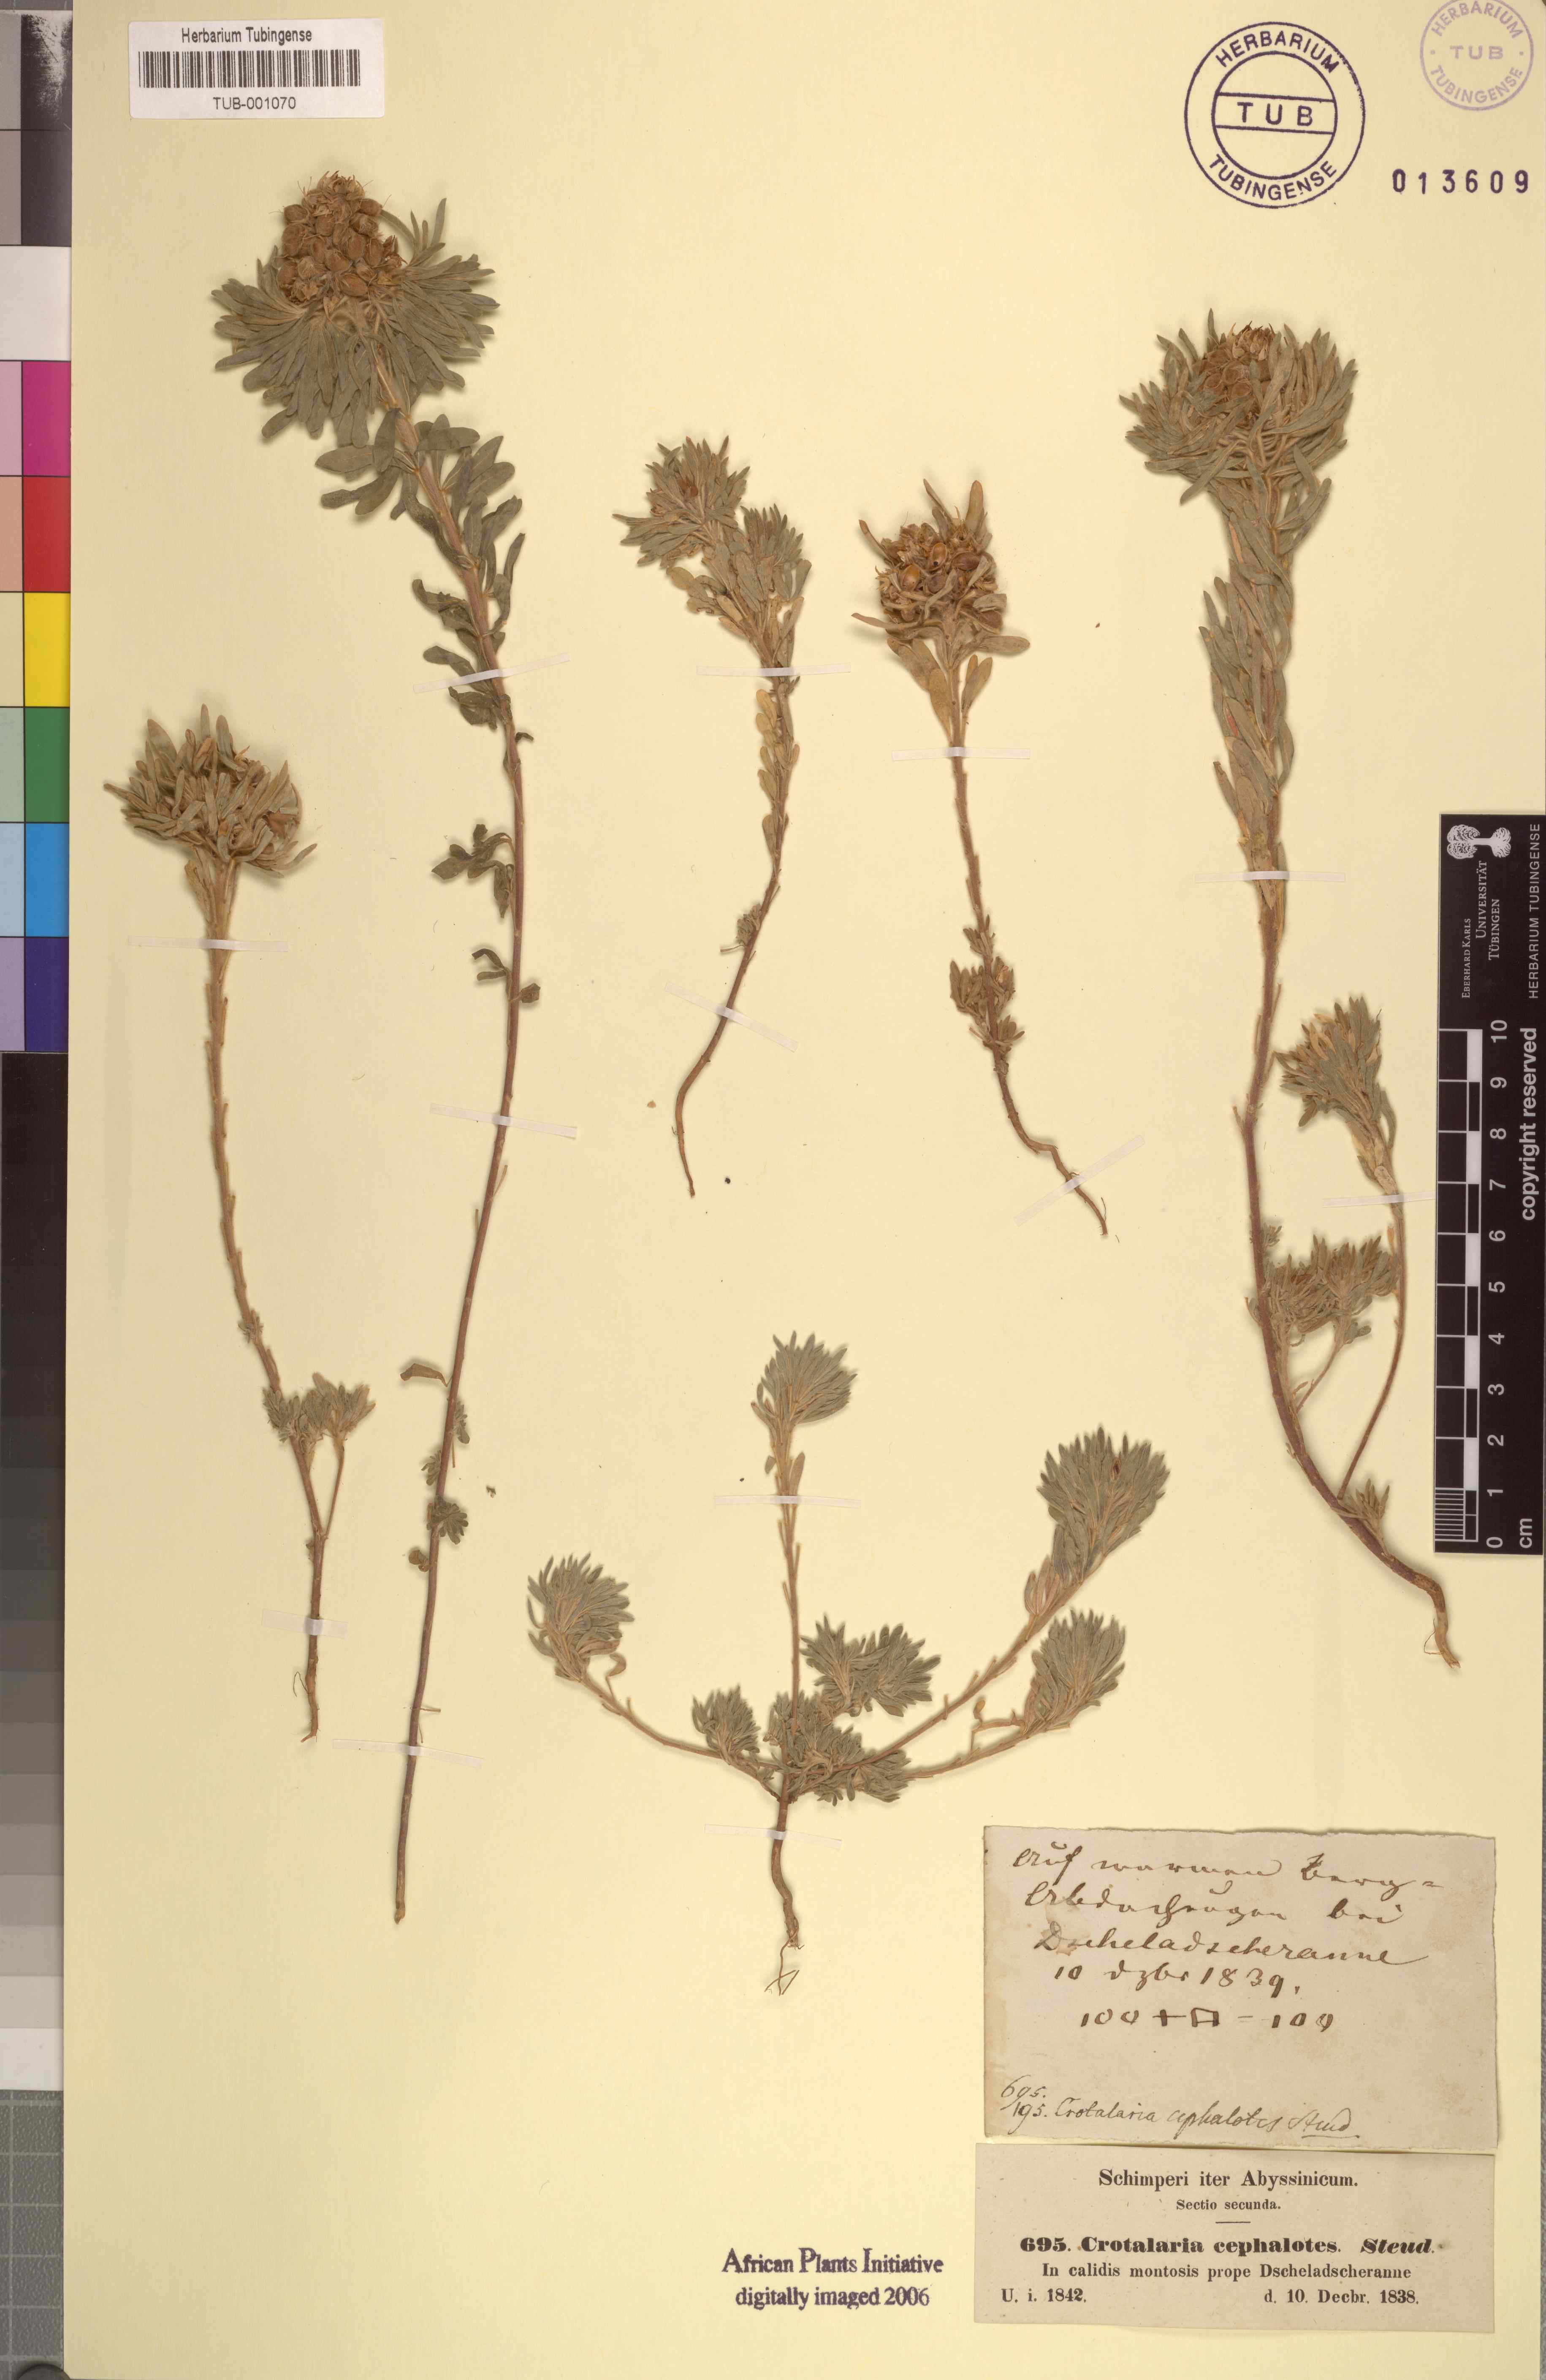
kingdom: Plantae
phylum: Tracheophyta
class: Magnoliopsida
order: Fabales
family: Fabaceae
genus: Crotalaria
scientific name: Crotalaria cephalotes
